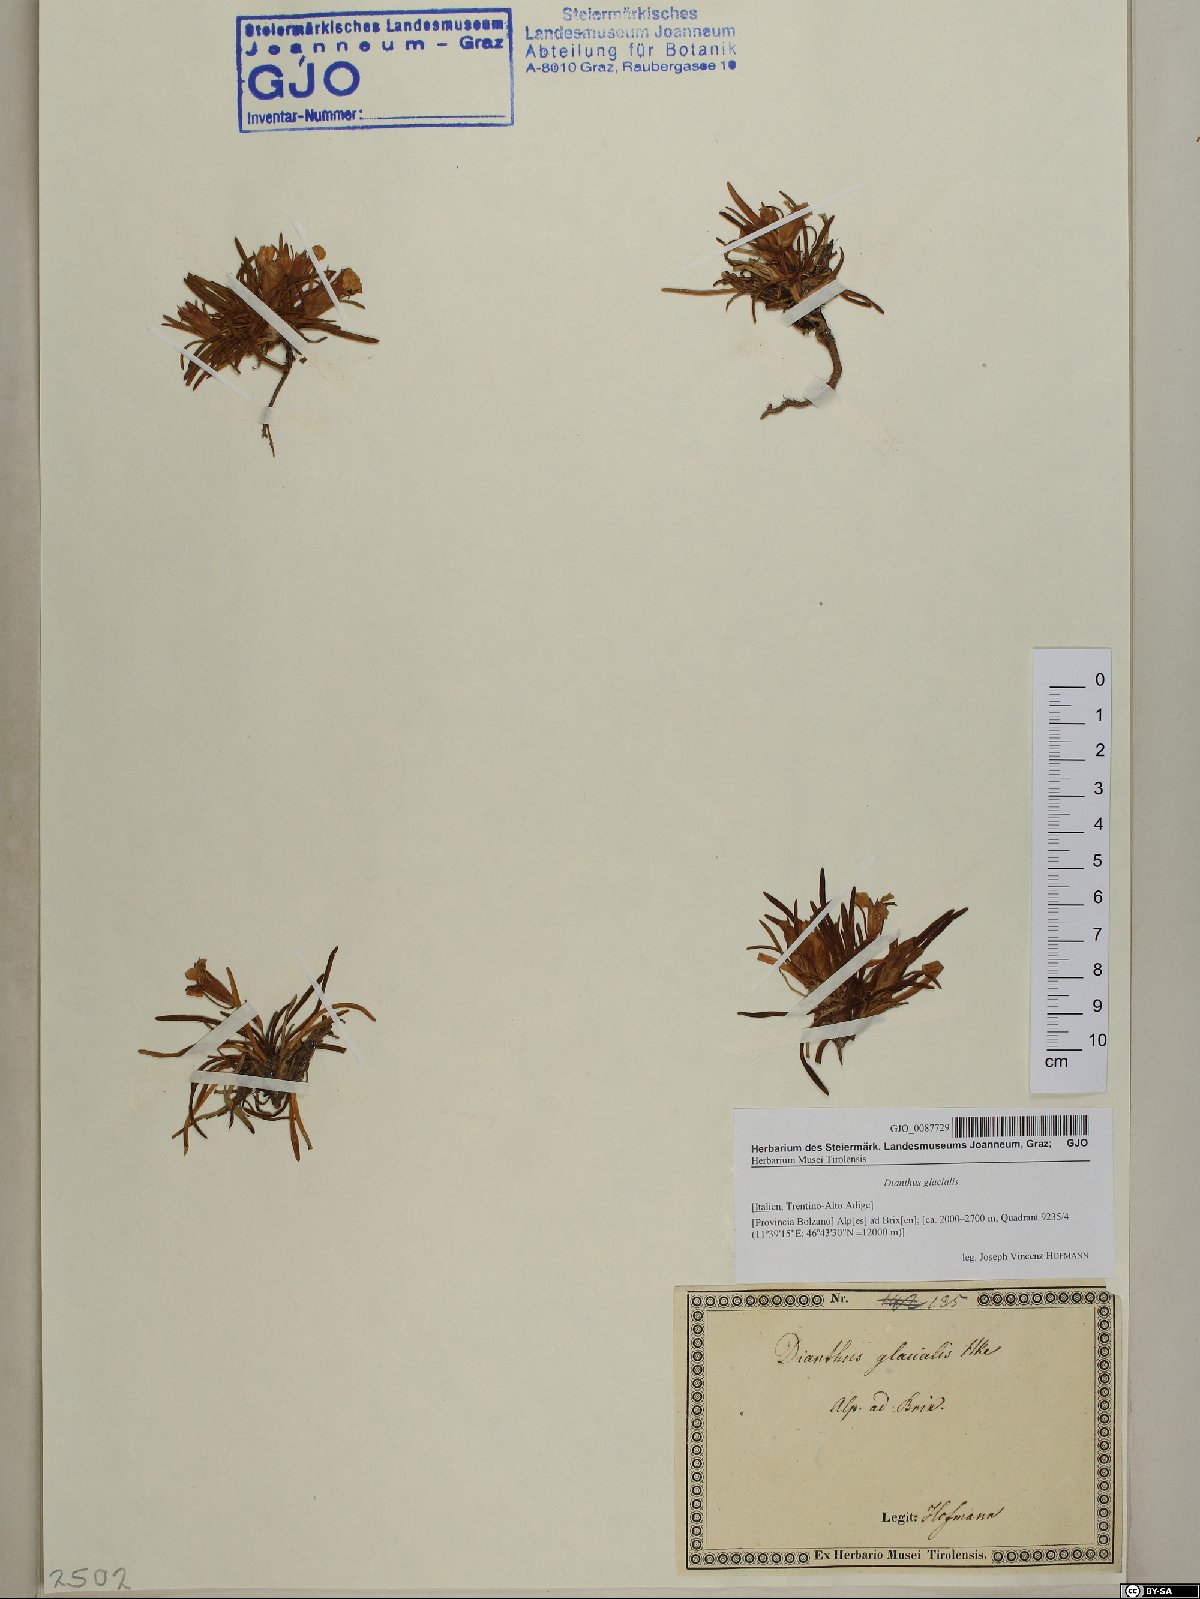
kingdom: Plantae
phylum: Tracheophyta
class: Magnoliopsida
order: Caryophyllales
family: Caryophyllaceae
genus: Dianthus
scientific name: Dianthus glacialis
